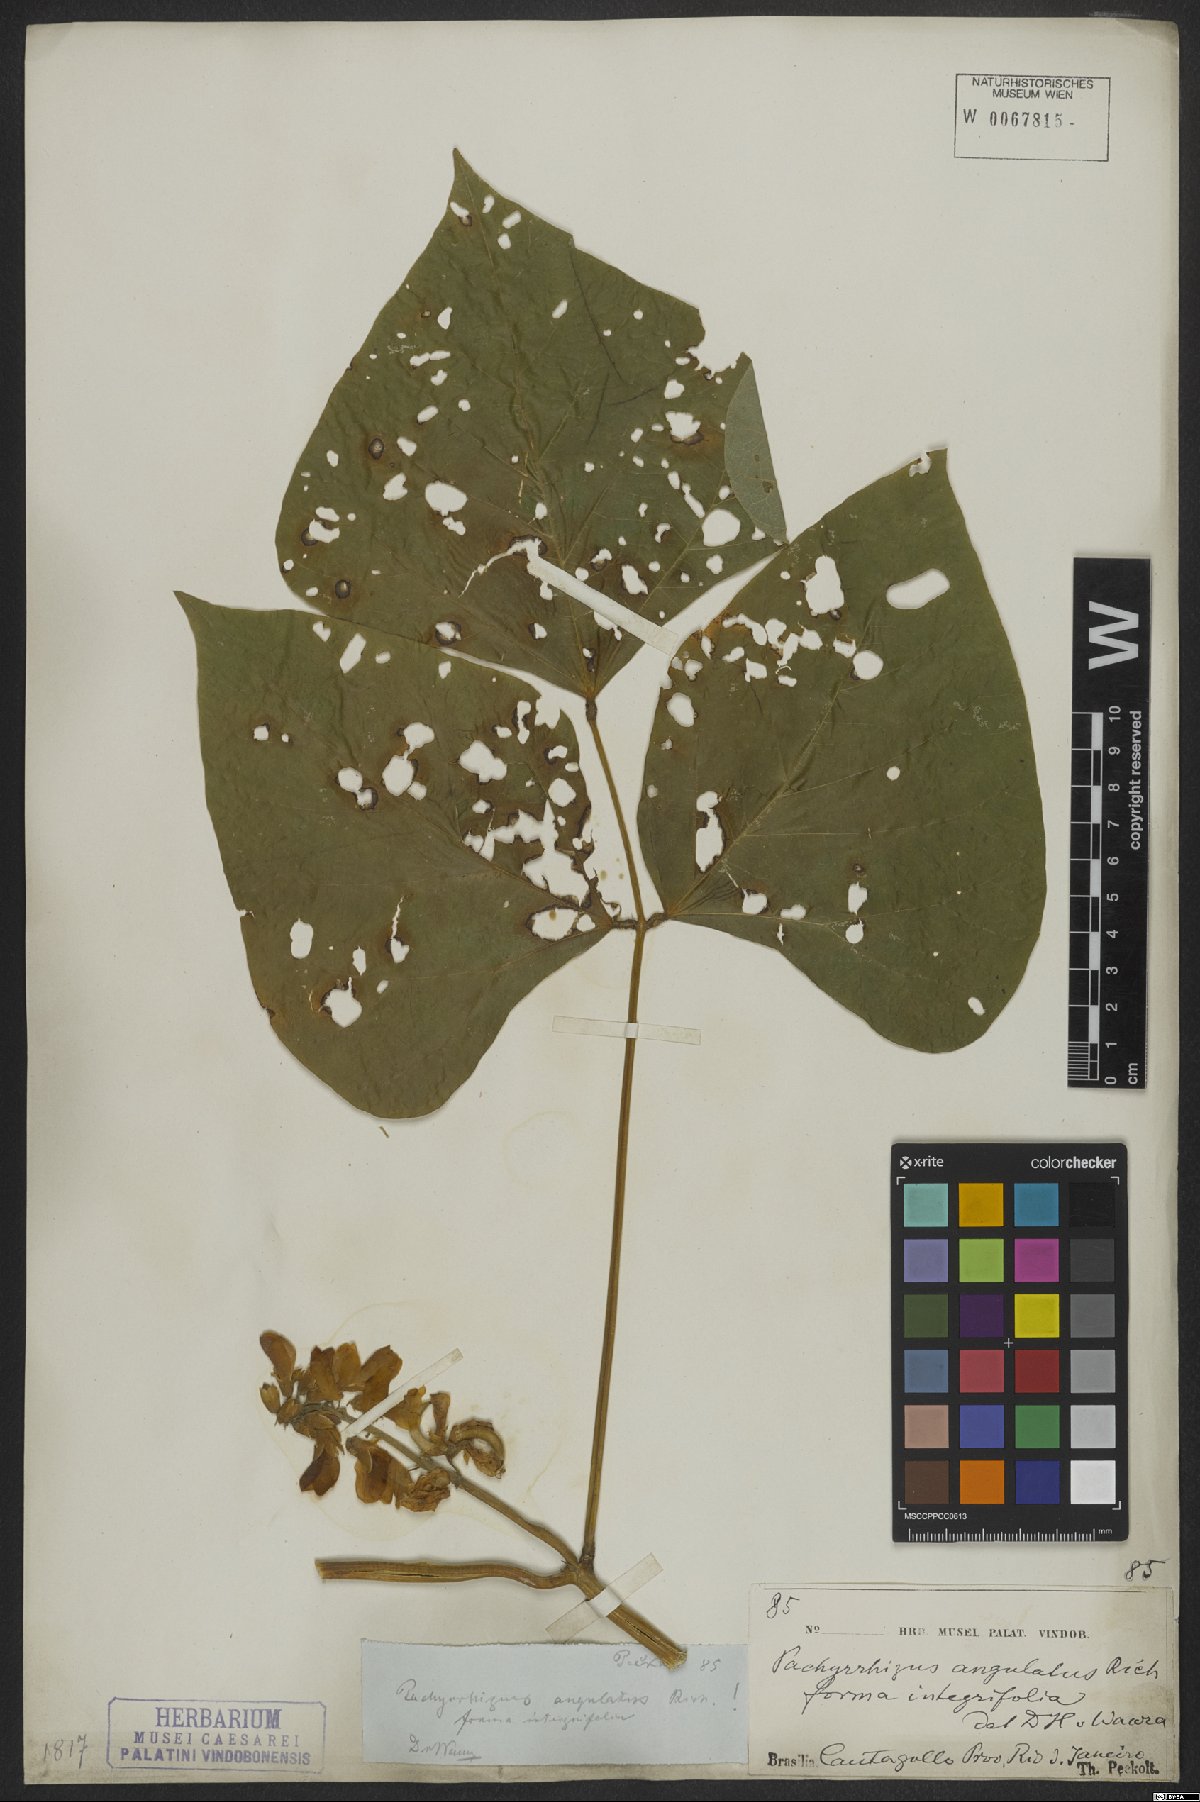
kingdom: Plantae
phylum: Tracheophyta
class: Magnoliopsida
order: Fabales
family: Fabaceae
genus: Pachyrhizus
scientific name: Pachyrhizus erosus
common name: Yam bean
